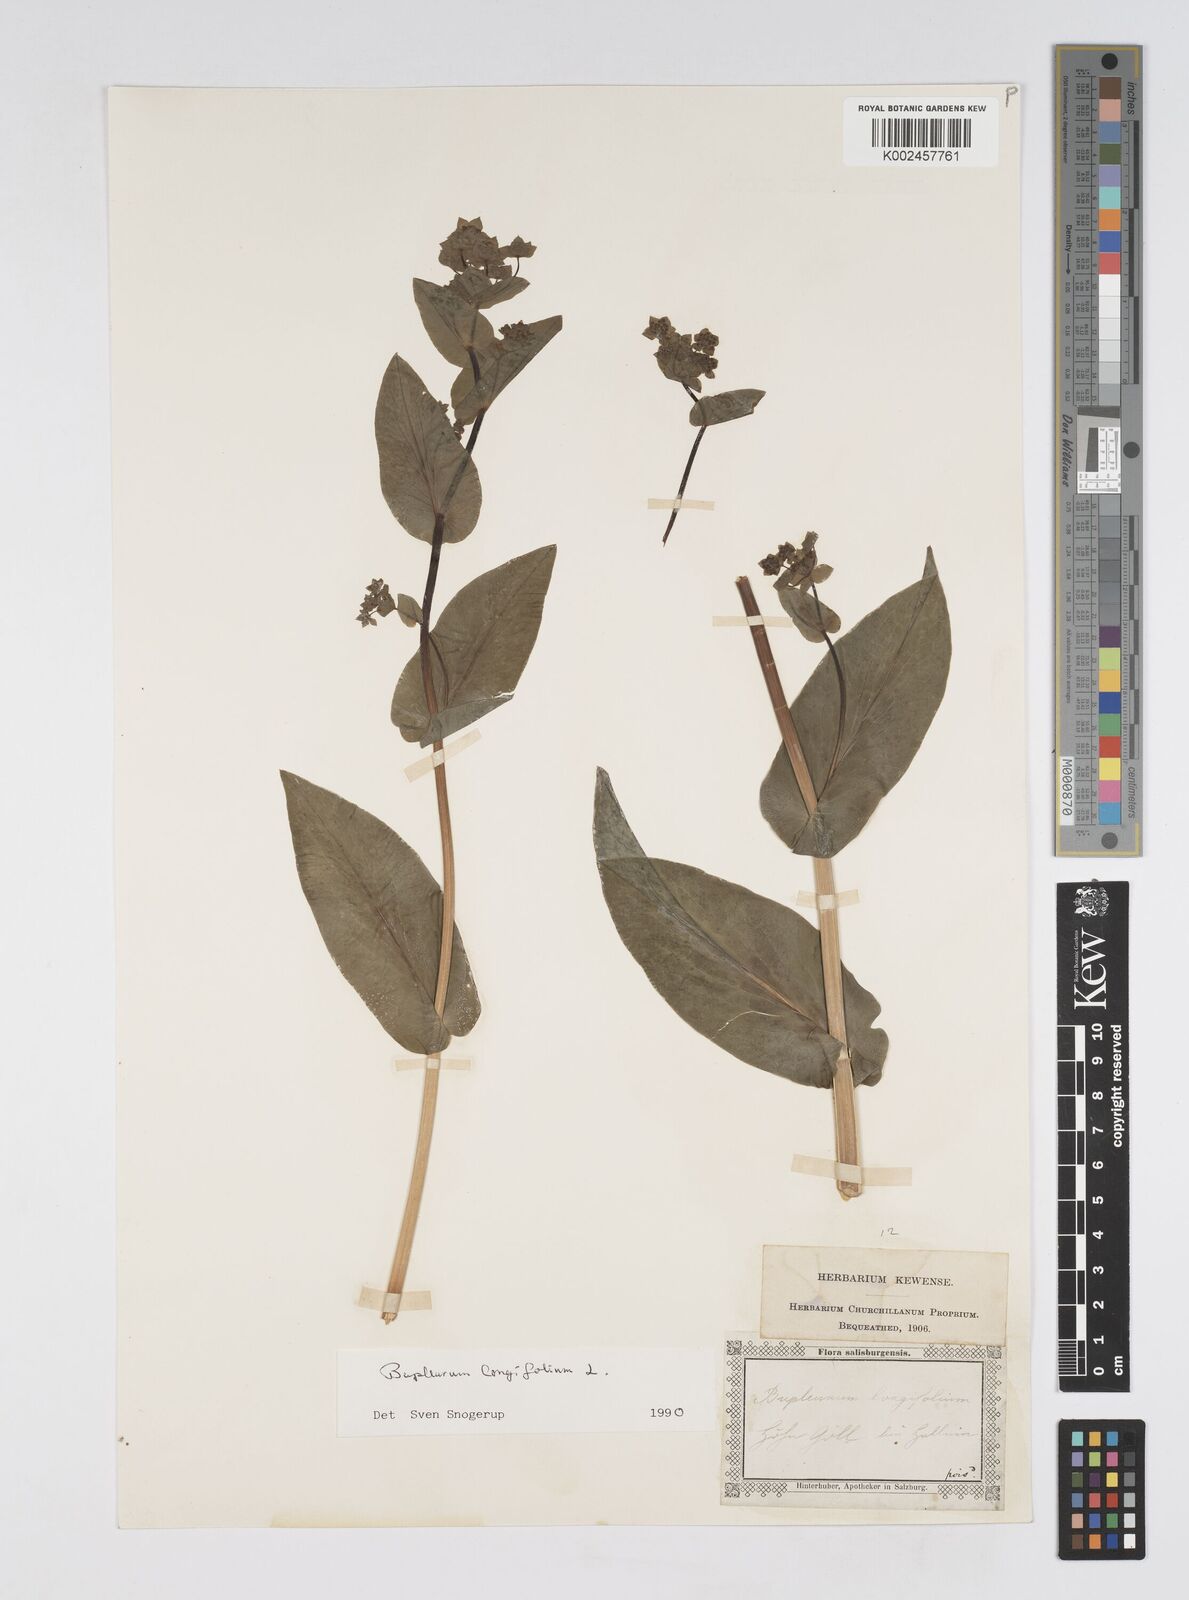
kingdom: Plantae
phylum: Tracheophyta
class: Magnoliopsida
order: Apiales
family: Apiaceae
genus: Bupleurum
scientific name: Bupleurum longifolium
